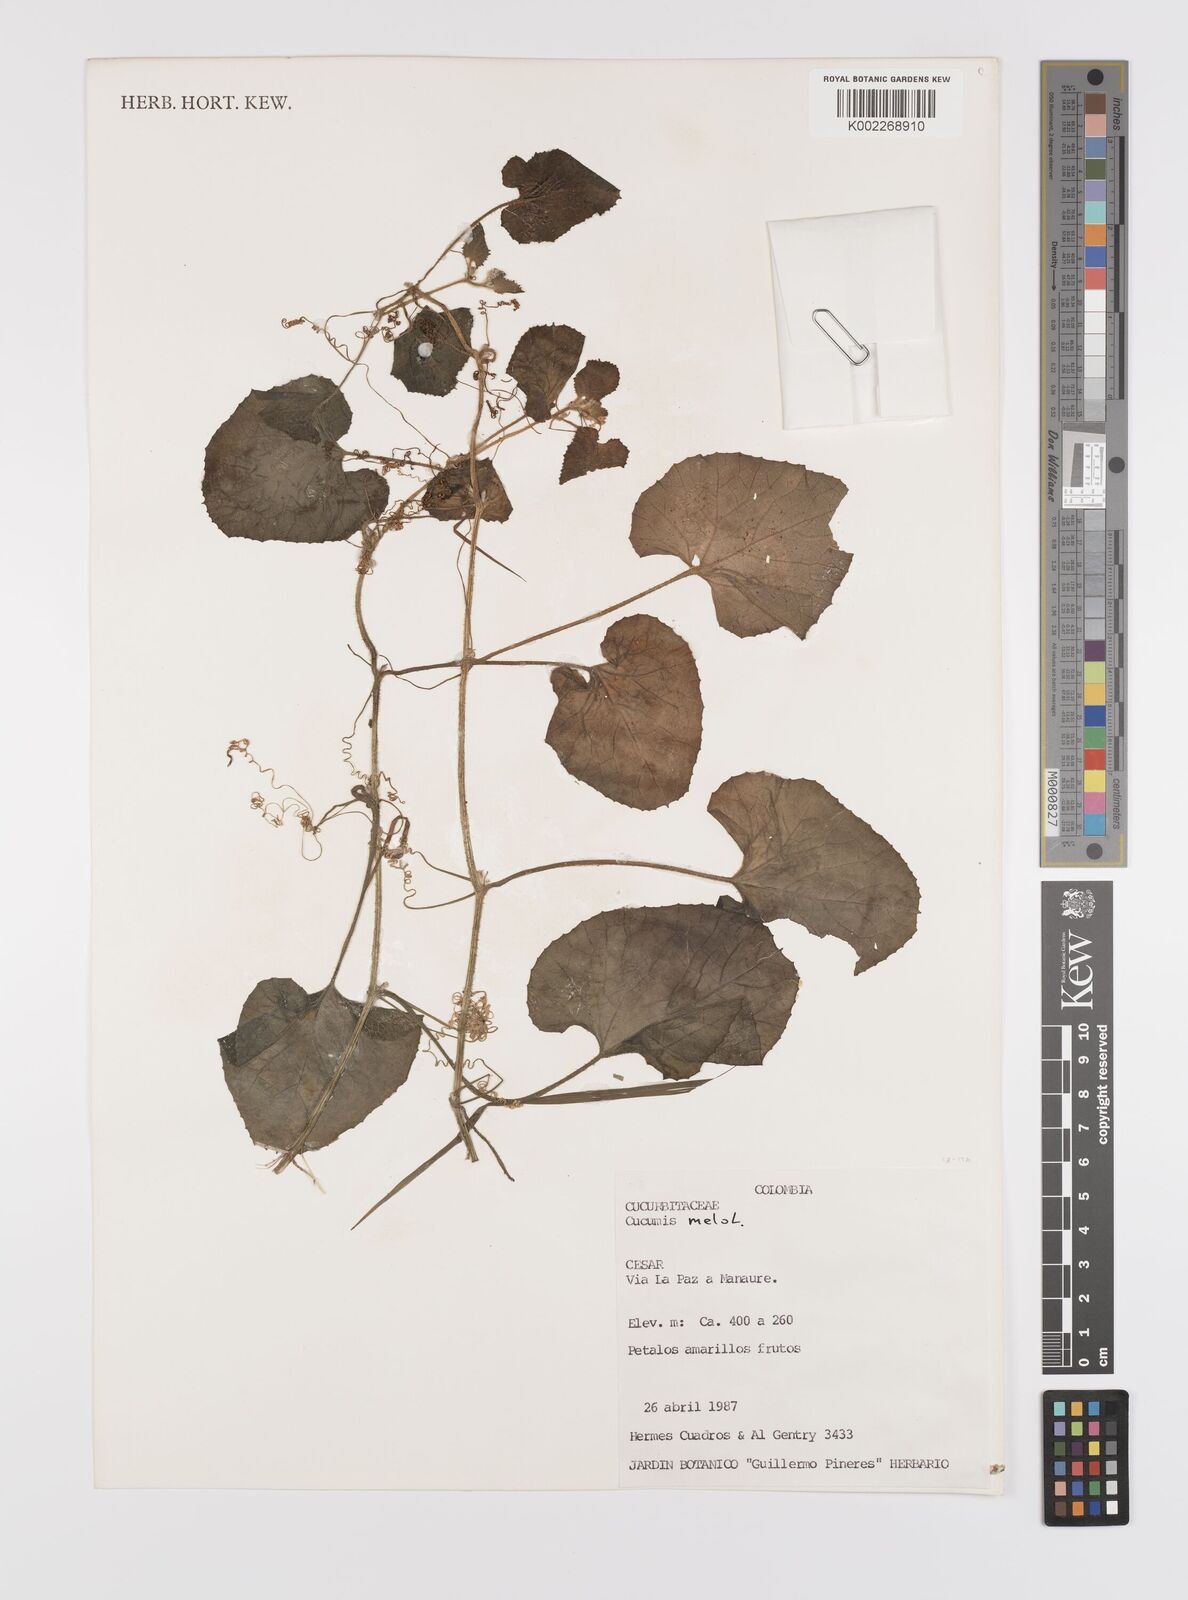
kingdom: Plantae
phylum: Tracheophyta
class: Magnoliopsida
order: Cucurbitales
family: Cucurbitaceae
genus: Cucumis
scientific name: Cucumis melo
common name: Melon
